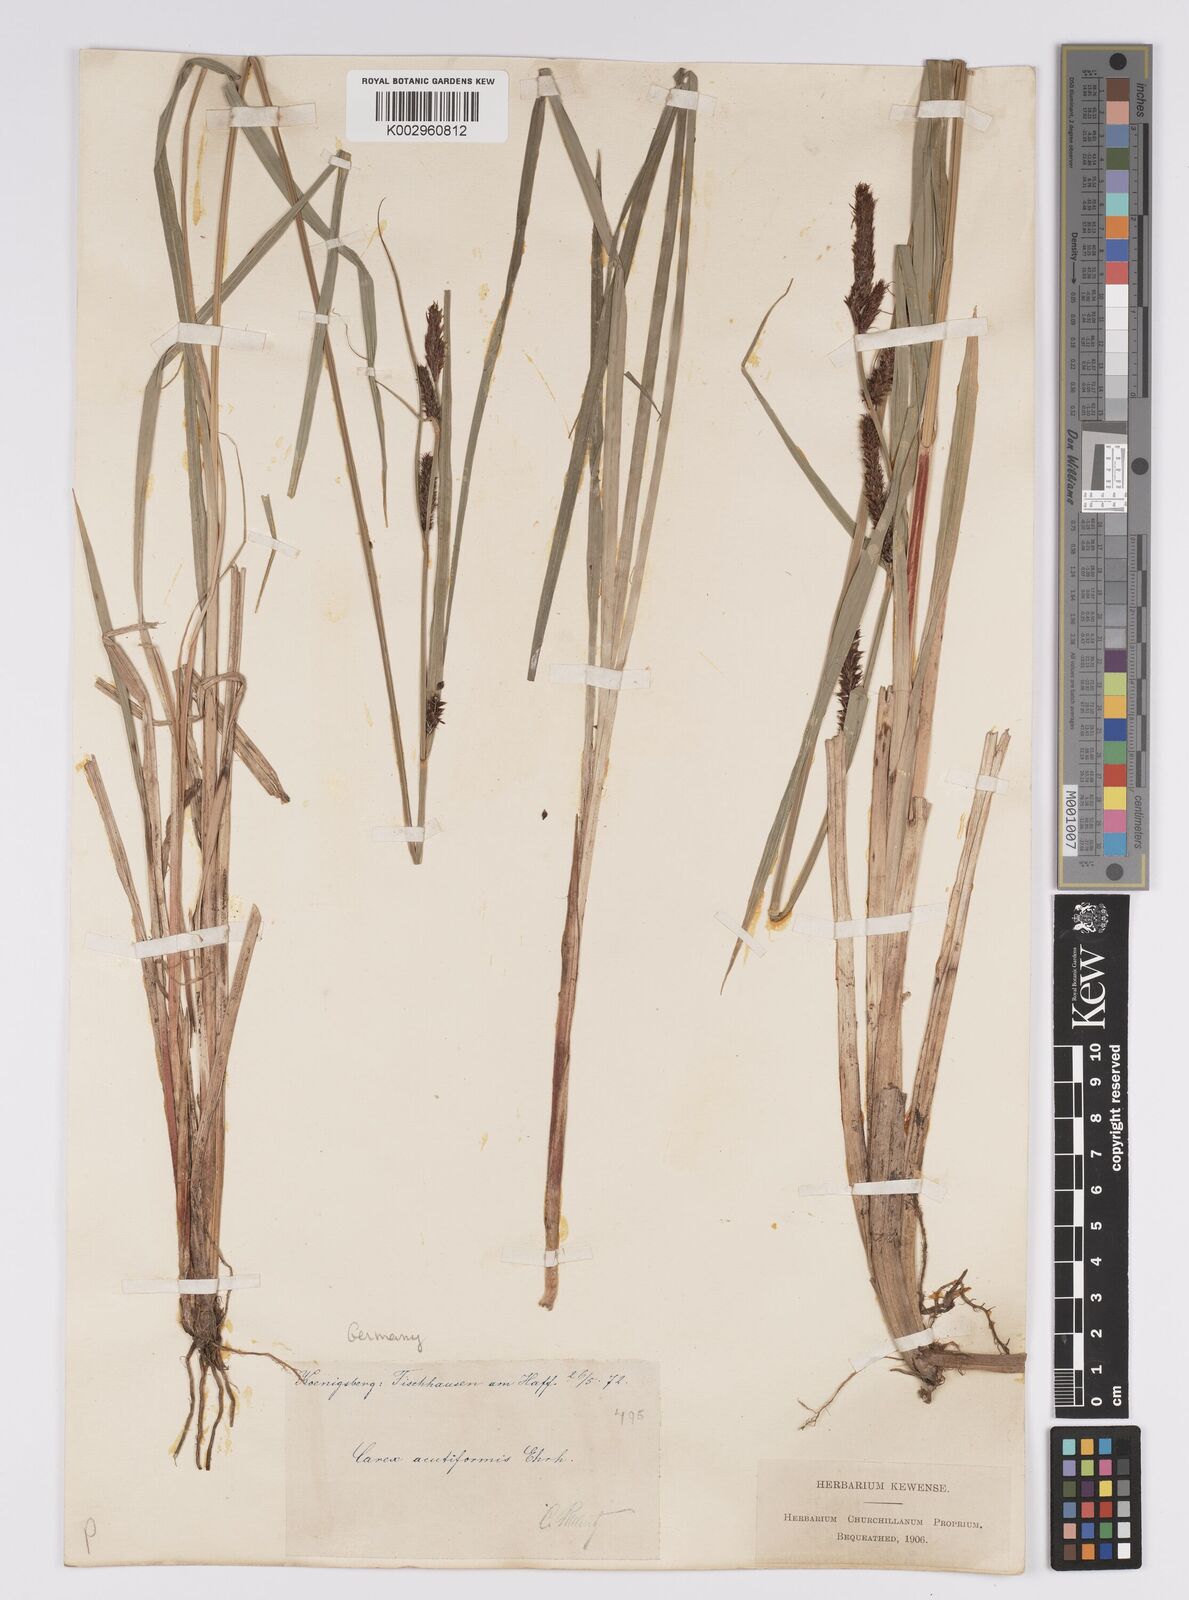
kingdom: Plantae
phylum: Tracheophyta
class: Liliopsida
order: Poales
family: Cyperaceae
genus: Carex
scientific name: Carex acutiformis
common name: Lesser pond-sedge
